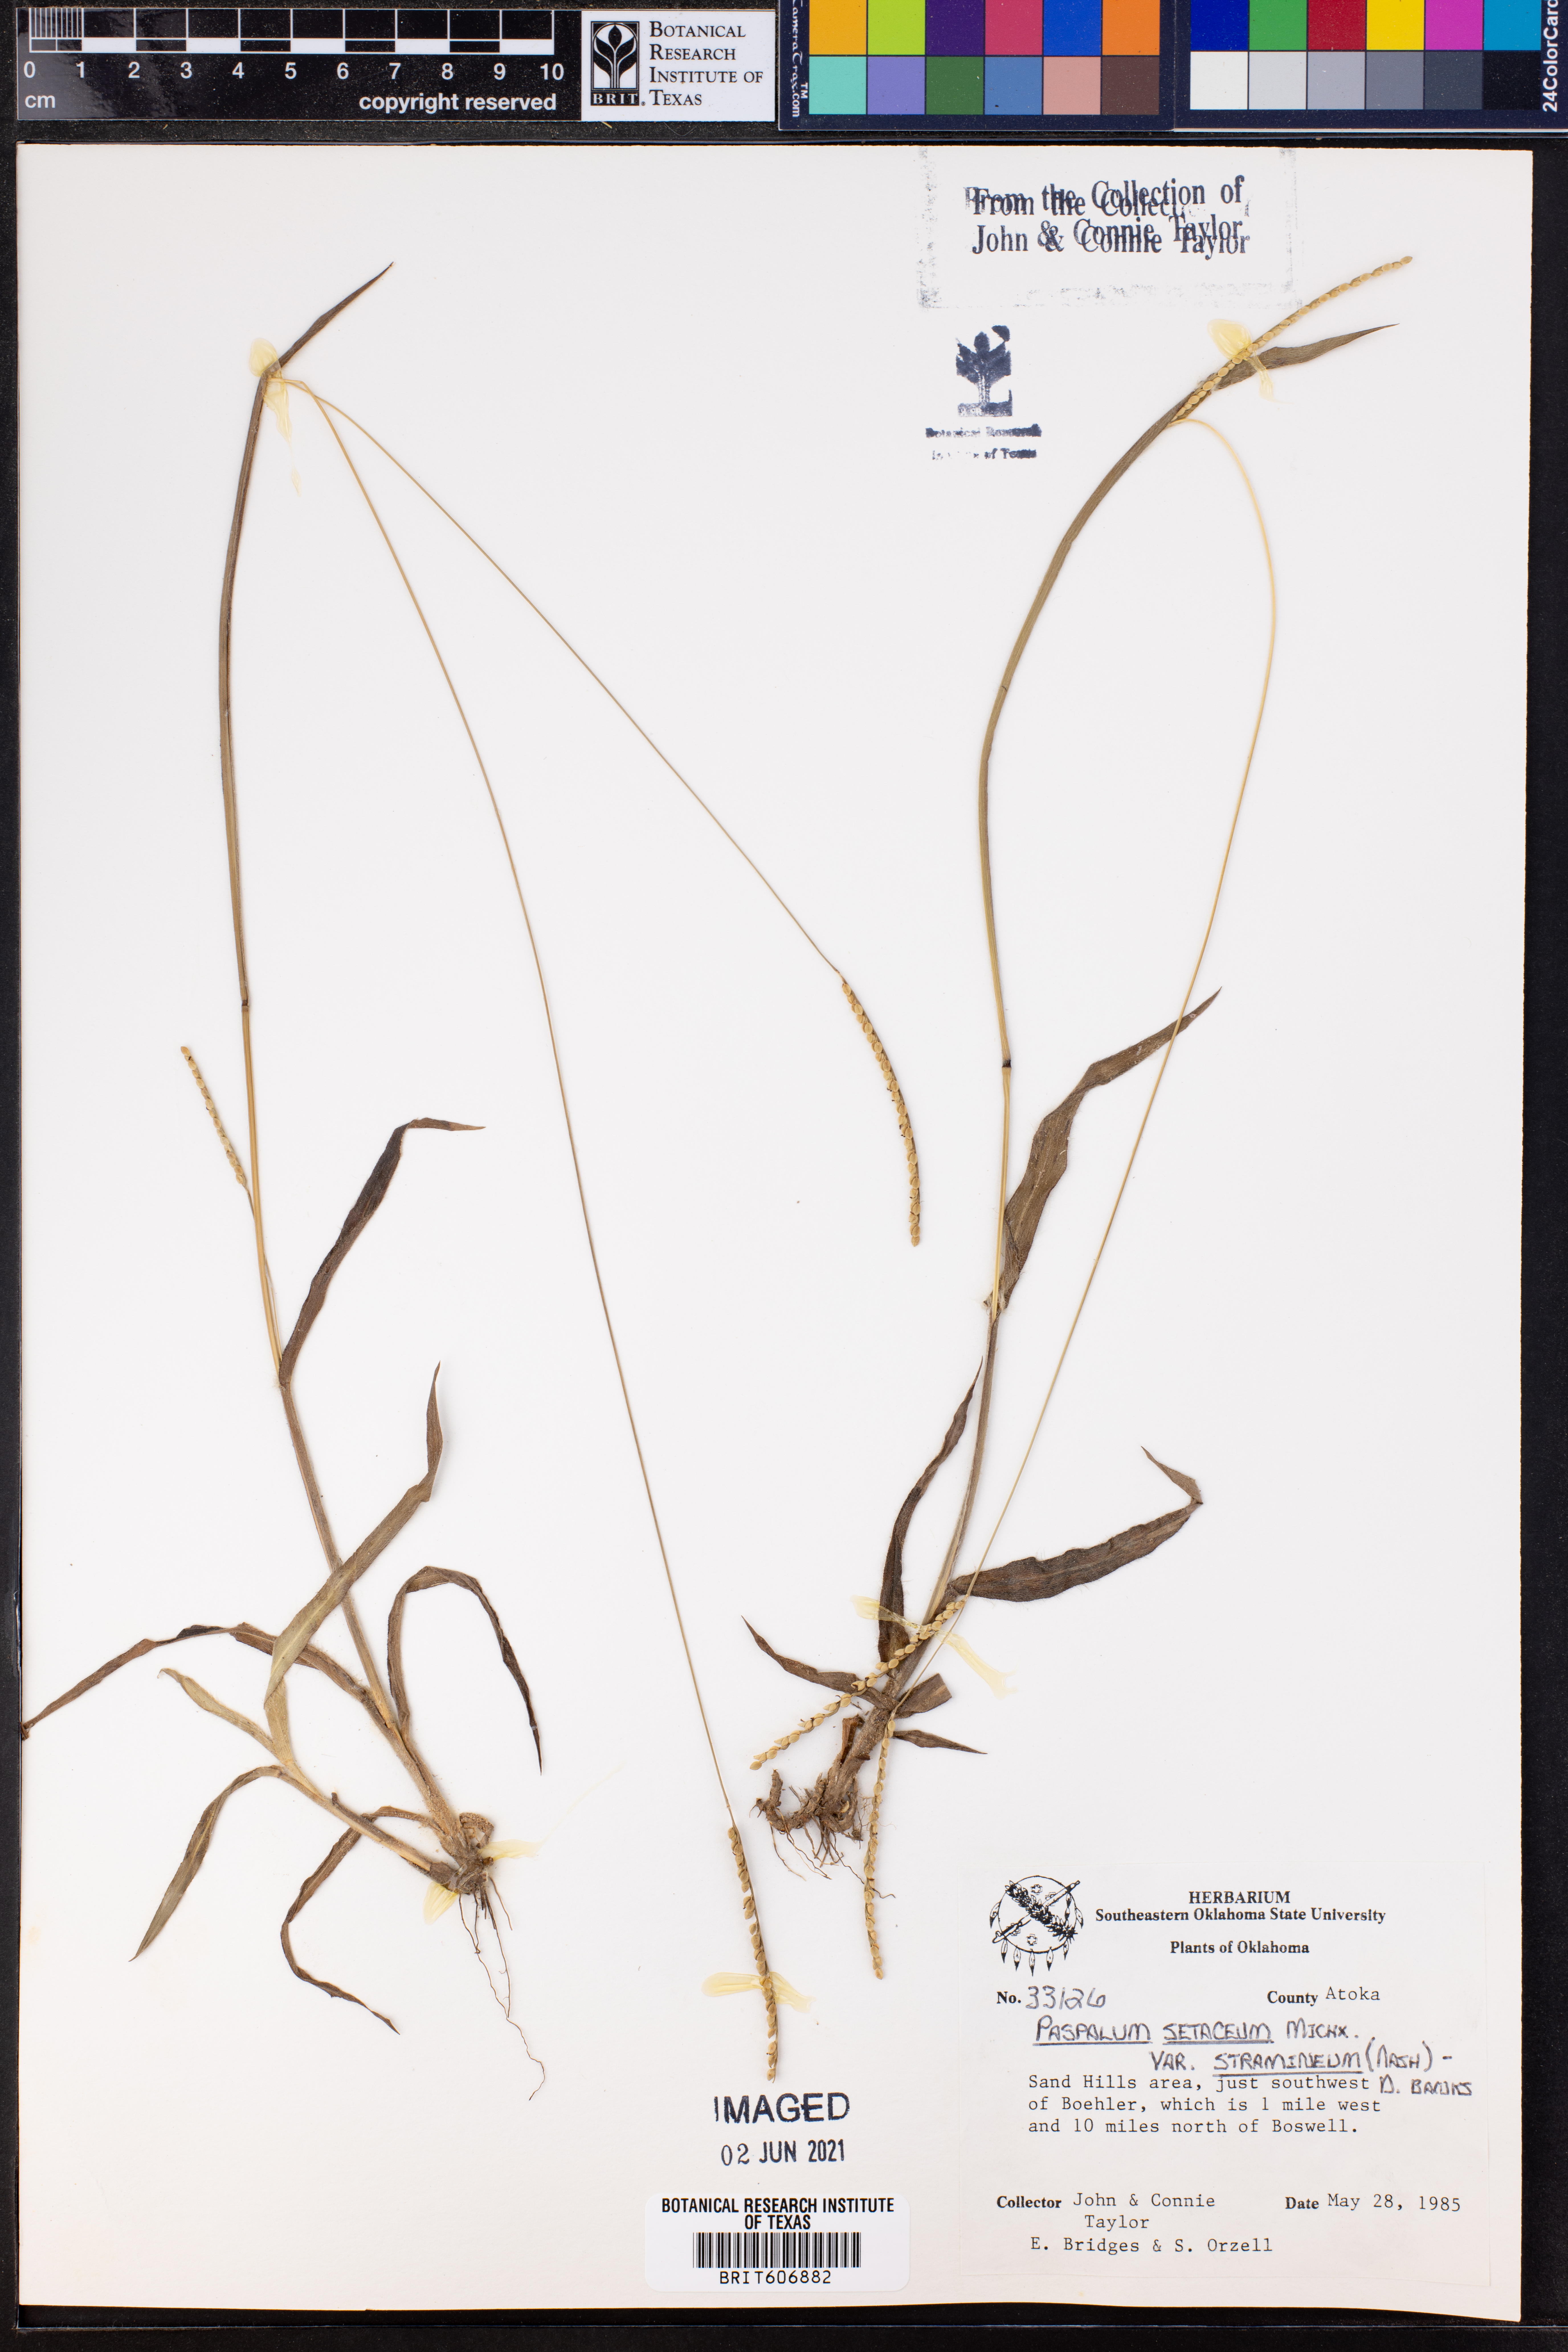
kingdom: Plantae
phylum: Tracheophyta
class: Liliopsida
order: Poales
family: Poaceae
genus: Paspalum
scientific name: Paspalum setaceum
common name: Slender paspalum
